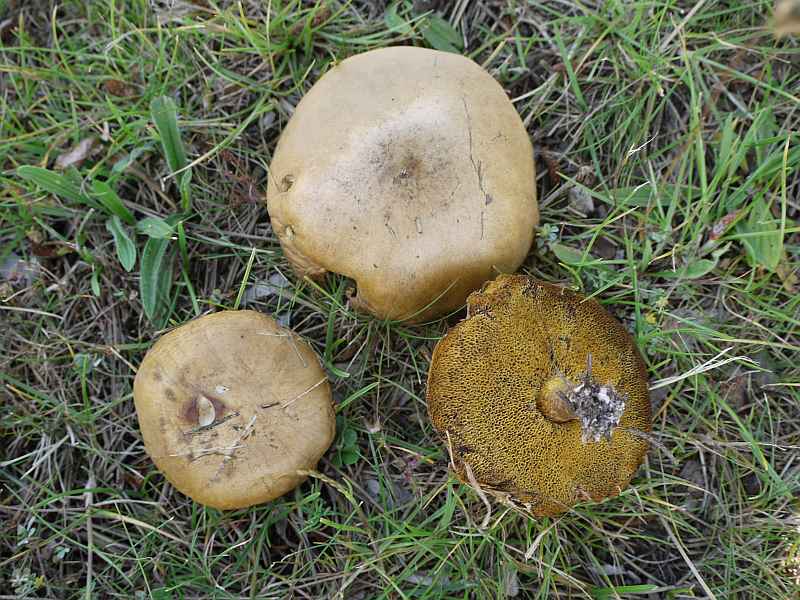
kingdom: Fungi
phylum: Basidiomycota
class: Agaricomycetes
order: Boletales
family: Suillaceae
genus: Suillus
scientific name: Suillus granulatus
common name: kornet slimrørhat
